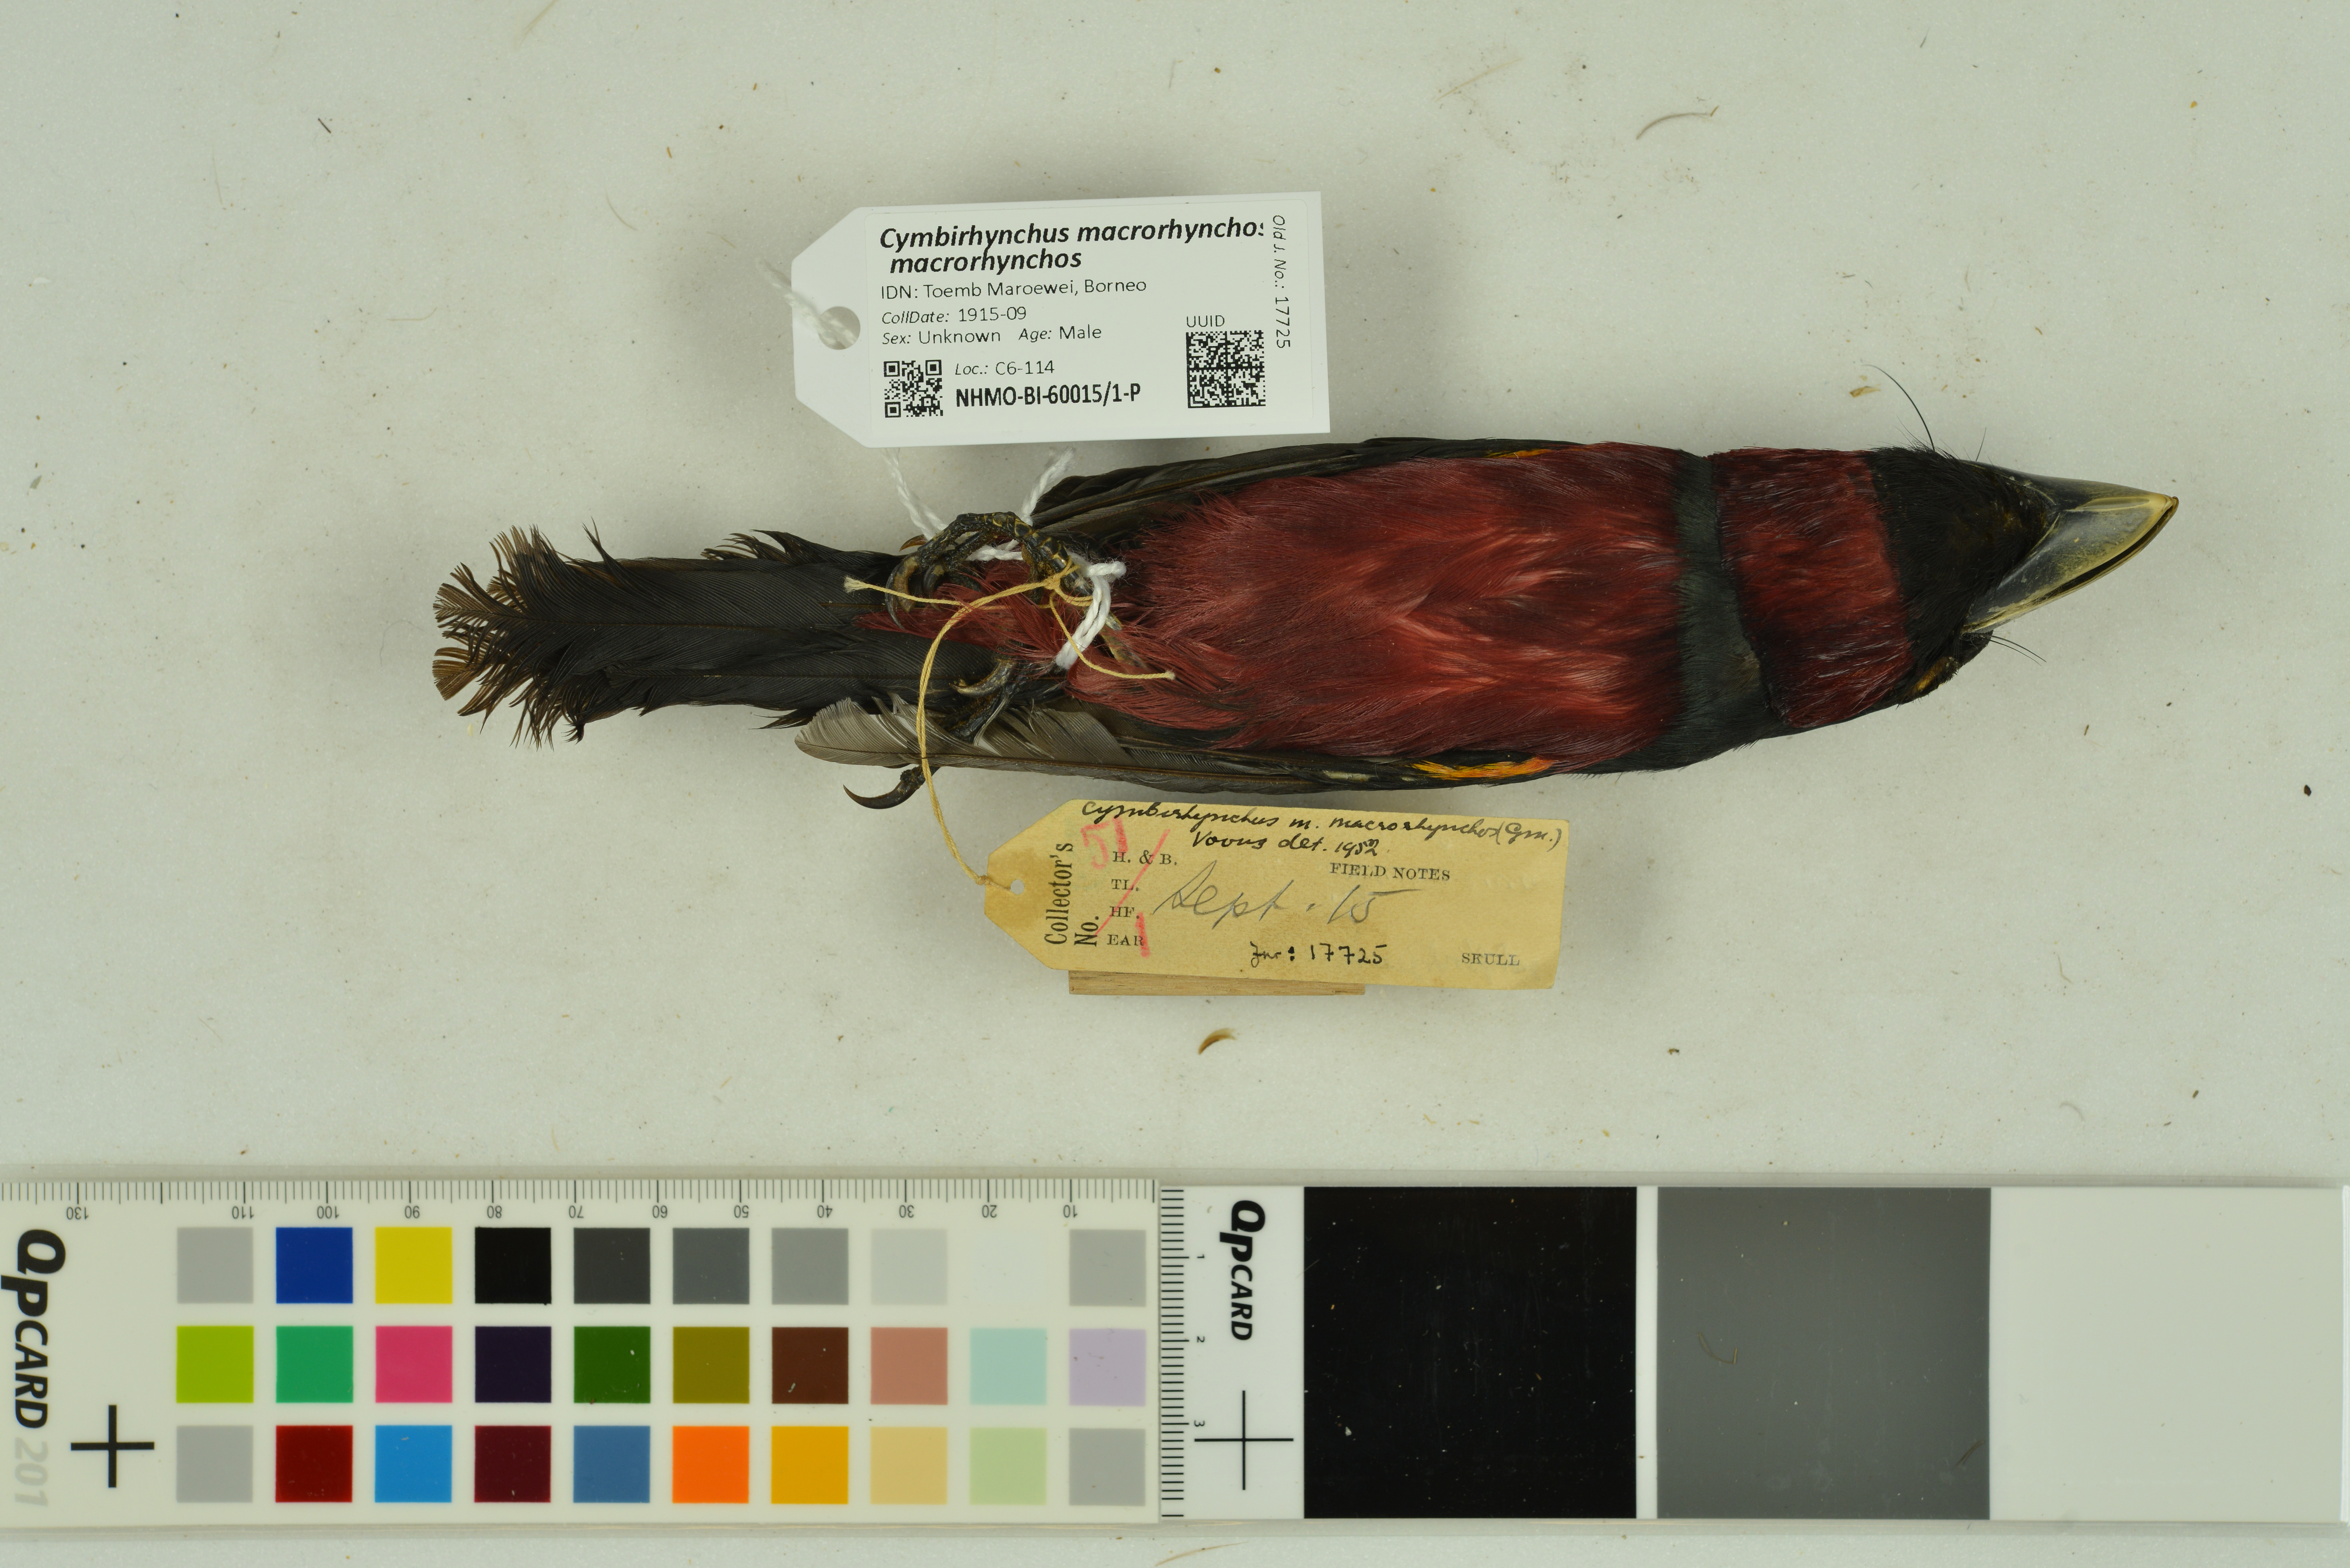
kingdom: Animalia
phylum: Chordata
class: Aves
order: Passeriformes
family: Eurylaimidae
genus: Cymbirhynchus
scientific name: Cymbirhynchus macrorhynchos
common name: Black-and-red broadbill
